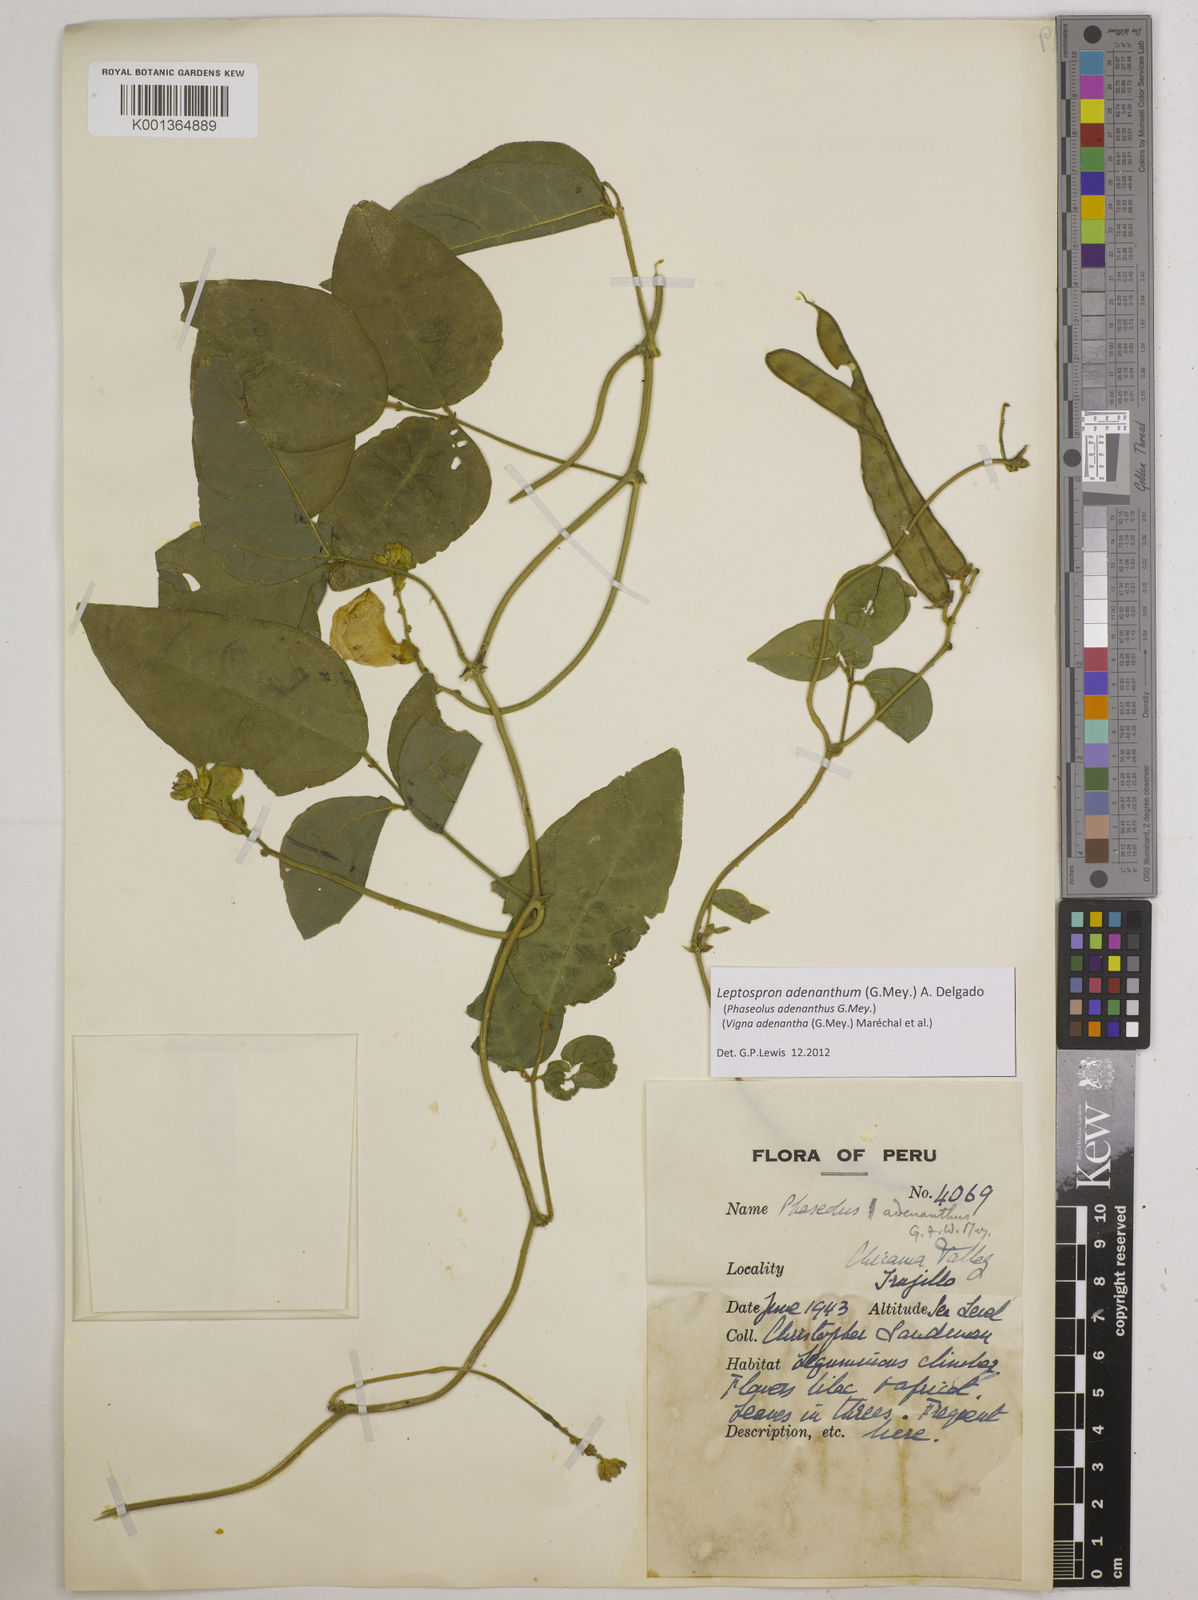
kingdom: Plantae
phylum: Tracheophyta
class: Magnoliopsida
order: Fabales
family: Fabaceae
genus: Leptospron
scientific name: Leptospron adenanthum
